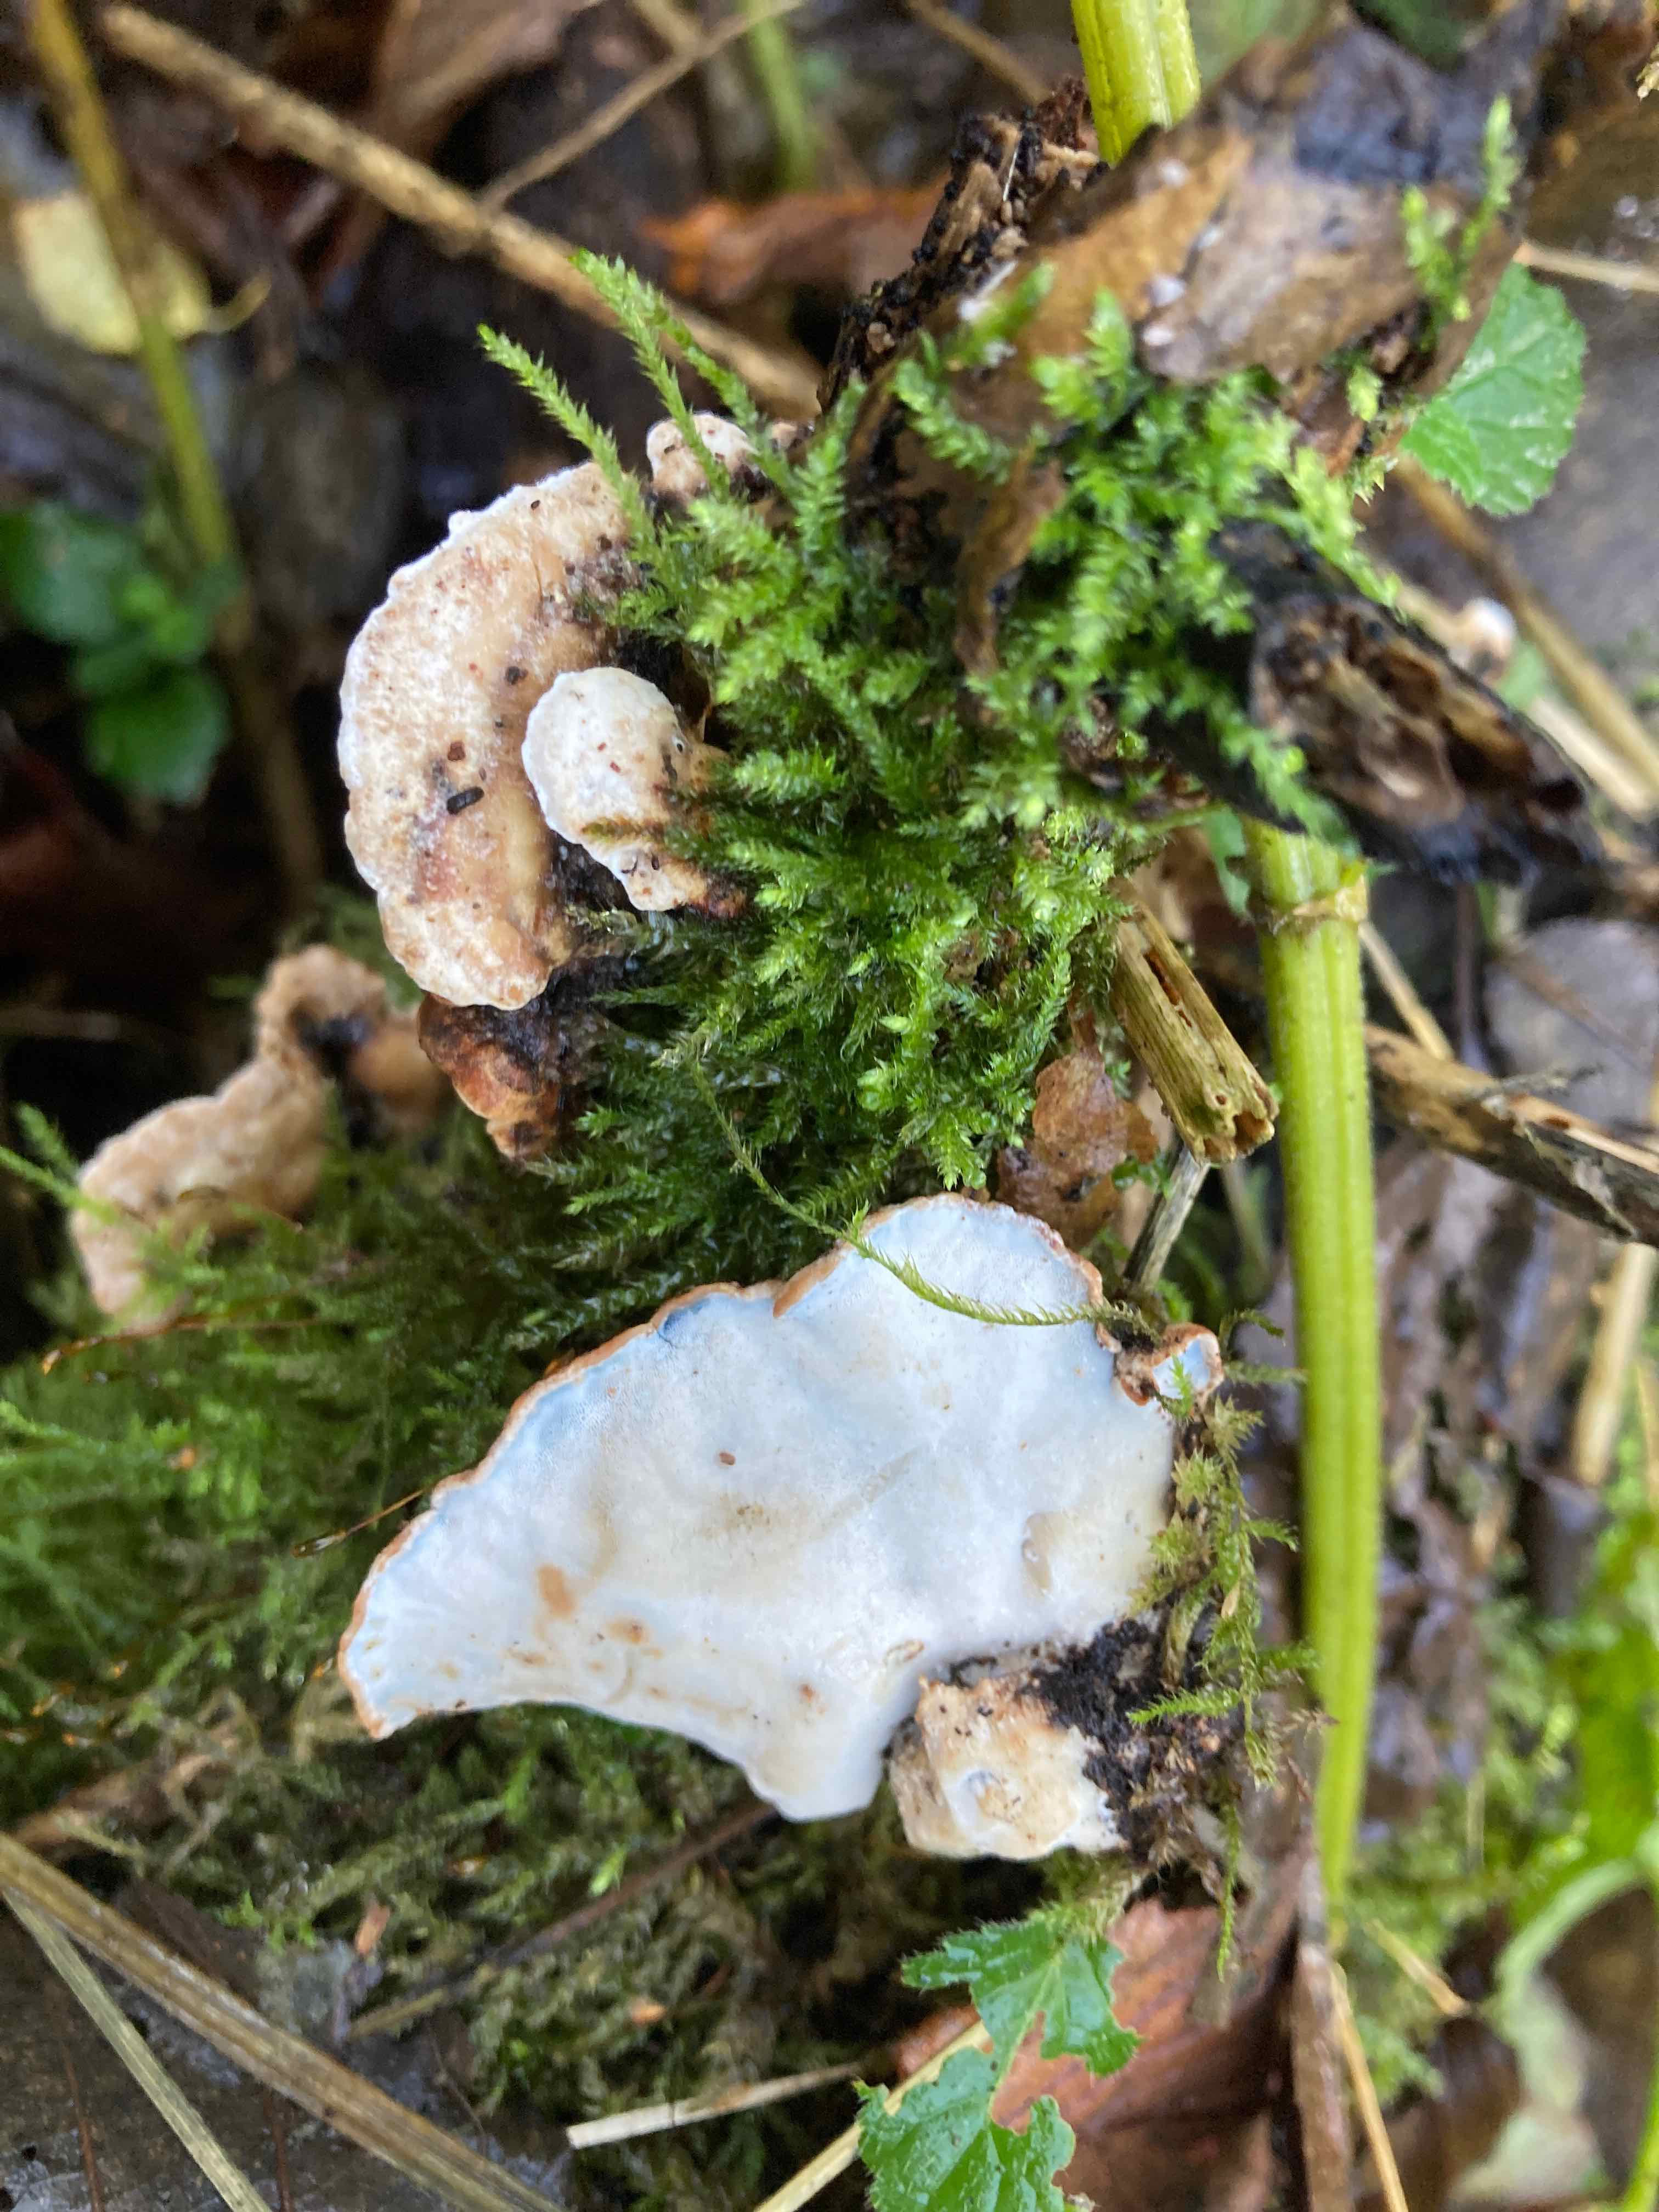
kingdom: Fungi
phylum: Basidiomycota
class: Agaricomycetes
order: Polyporales
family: Incrustoporiaceae
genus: Skeletocutis
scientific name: Skeletocutis nemoralis
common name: stor krystalporesvamp
